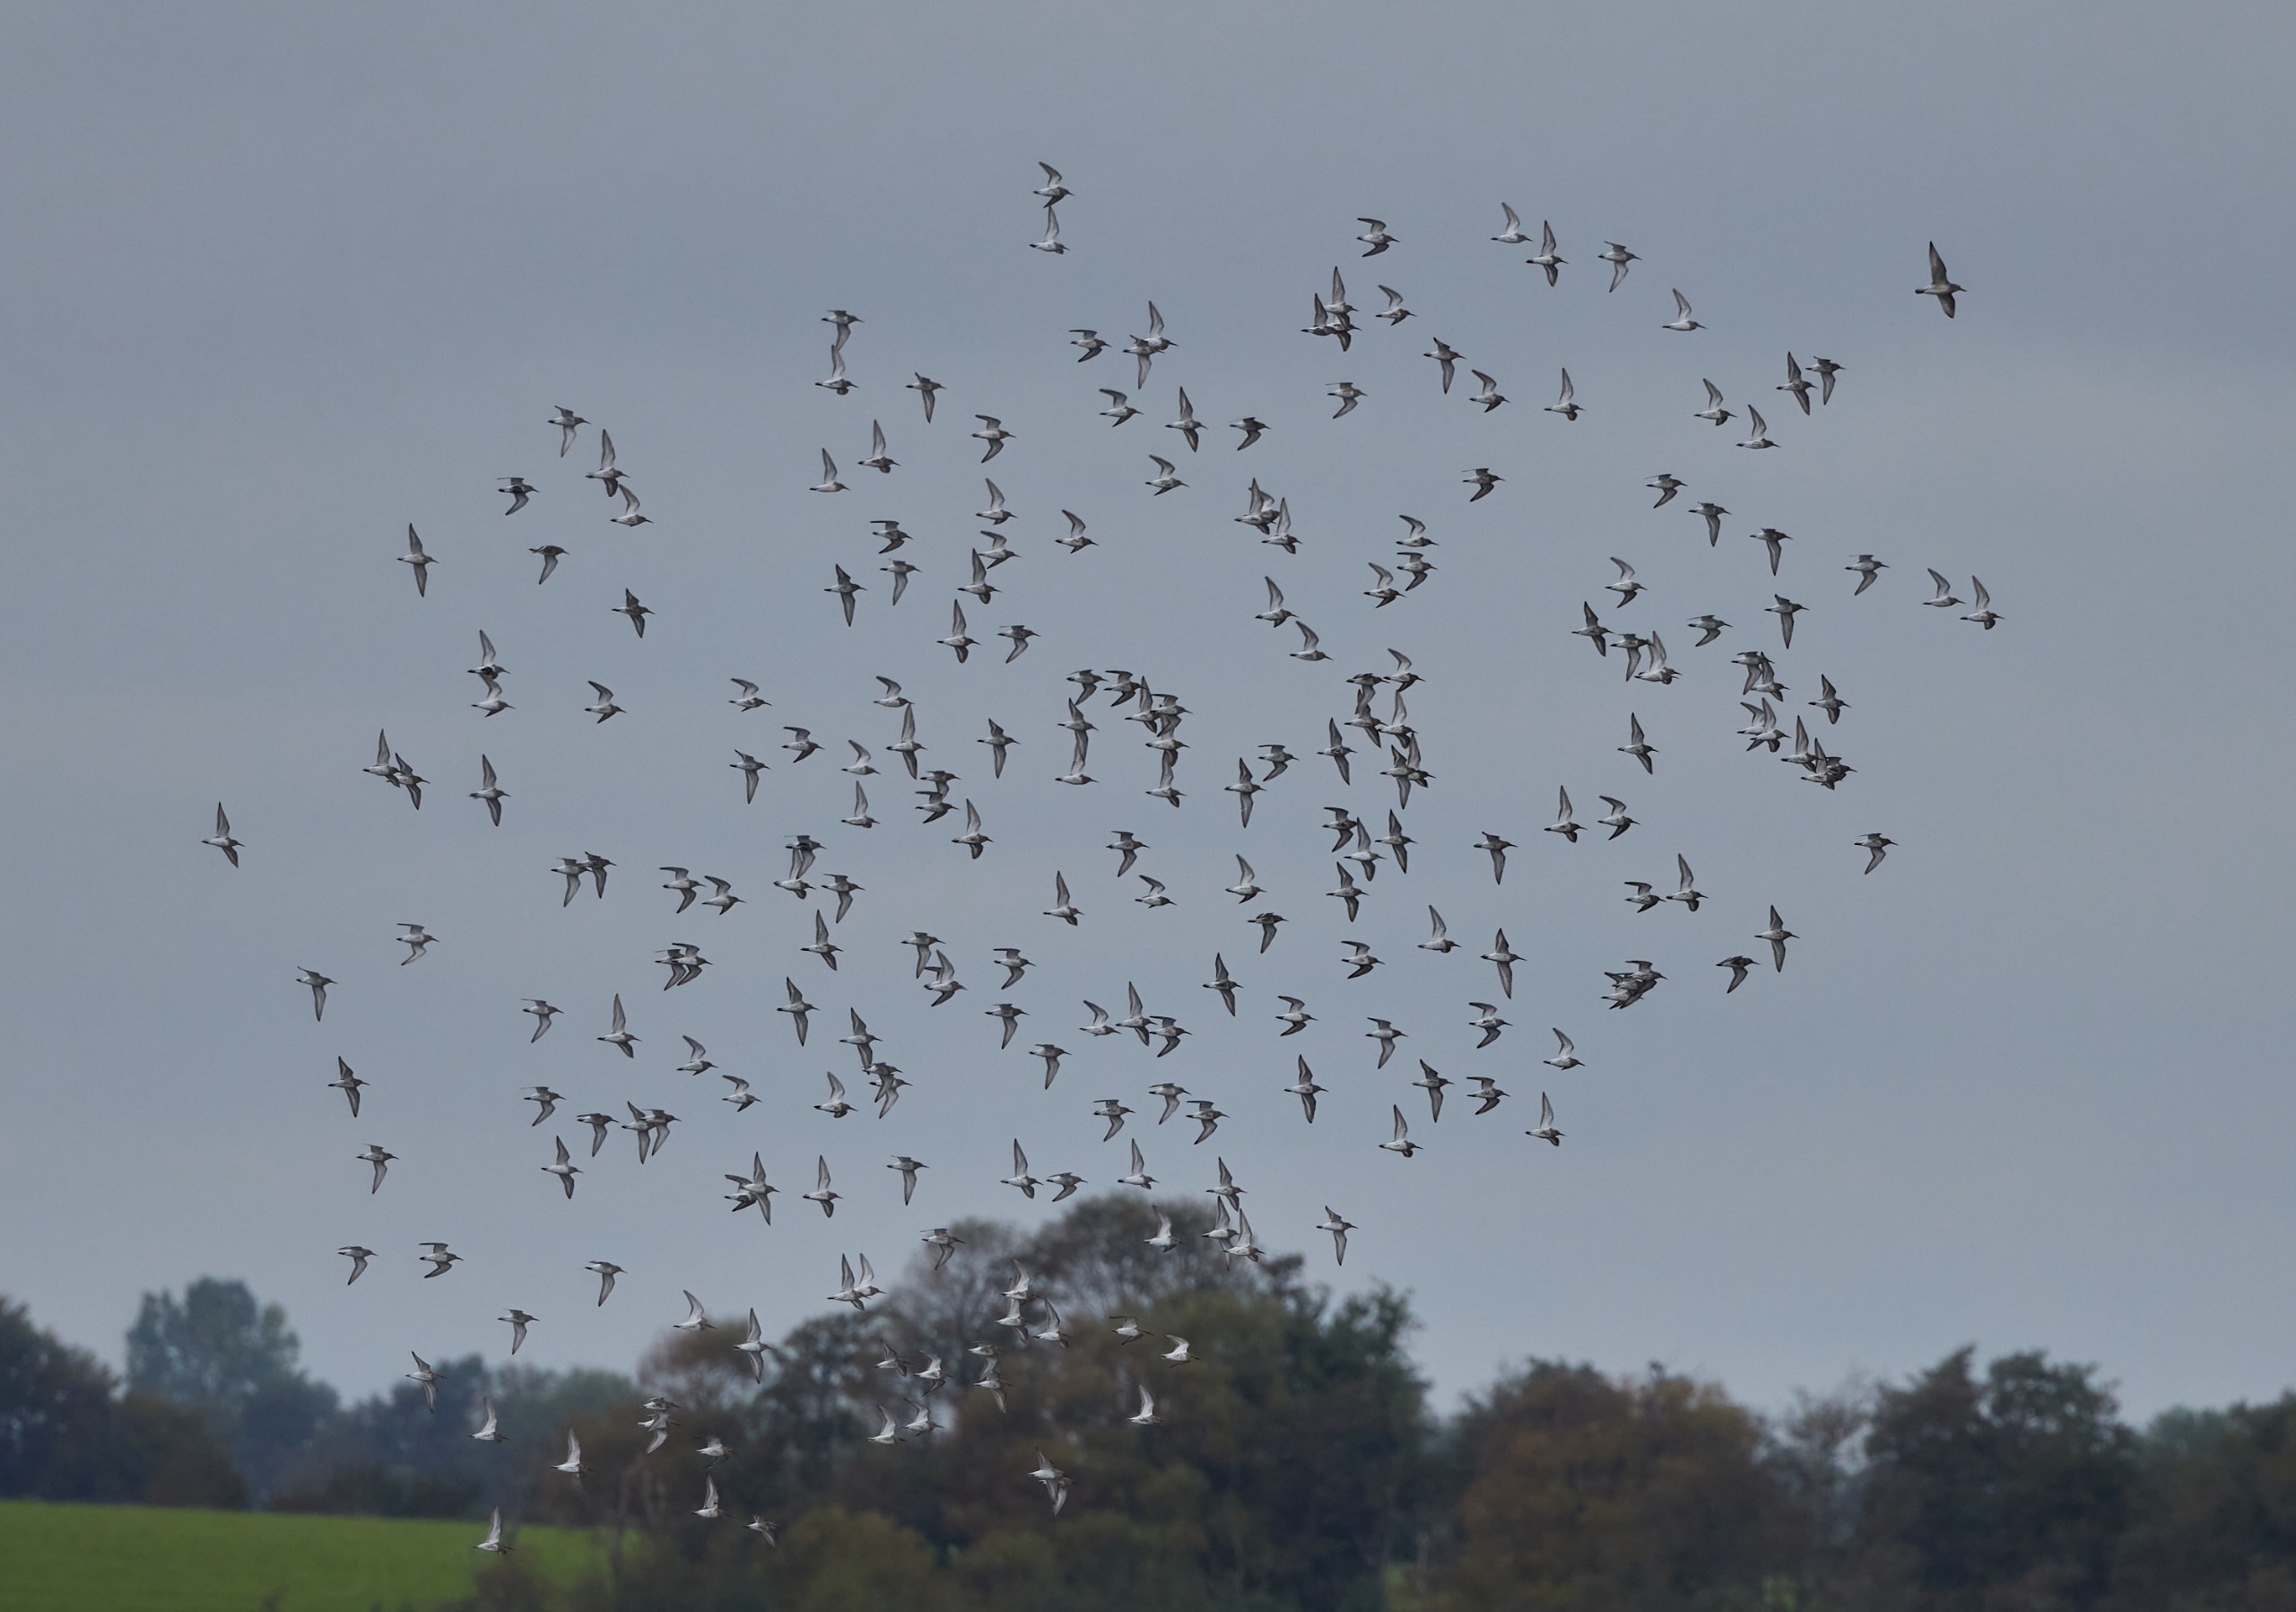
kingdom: Animalia
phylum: Chordata
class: Aves
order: Charadriiformes
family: Scolopacidae
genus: Calidris
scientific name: Calidris alpina
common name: Almindelig ryle
